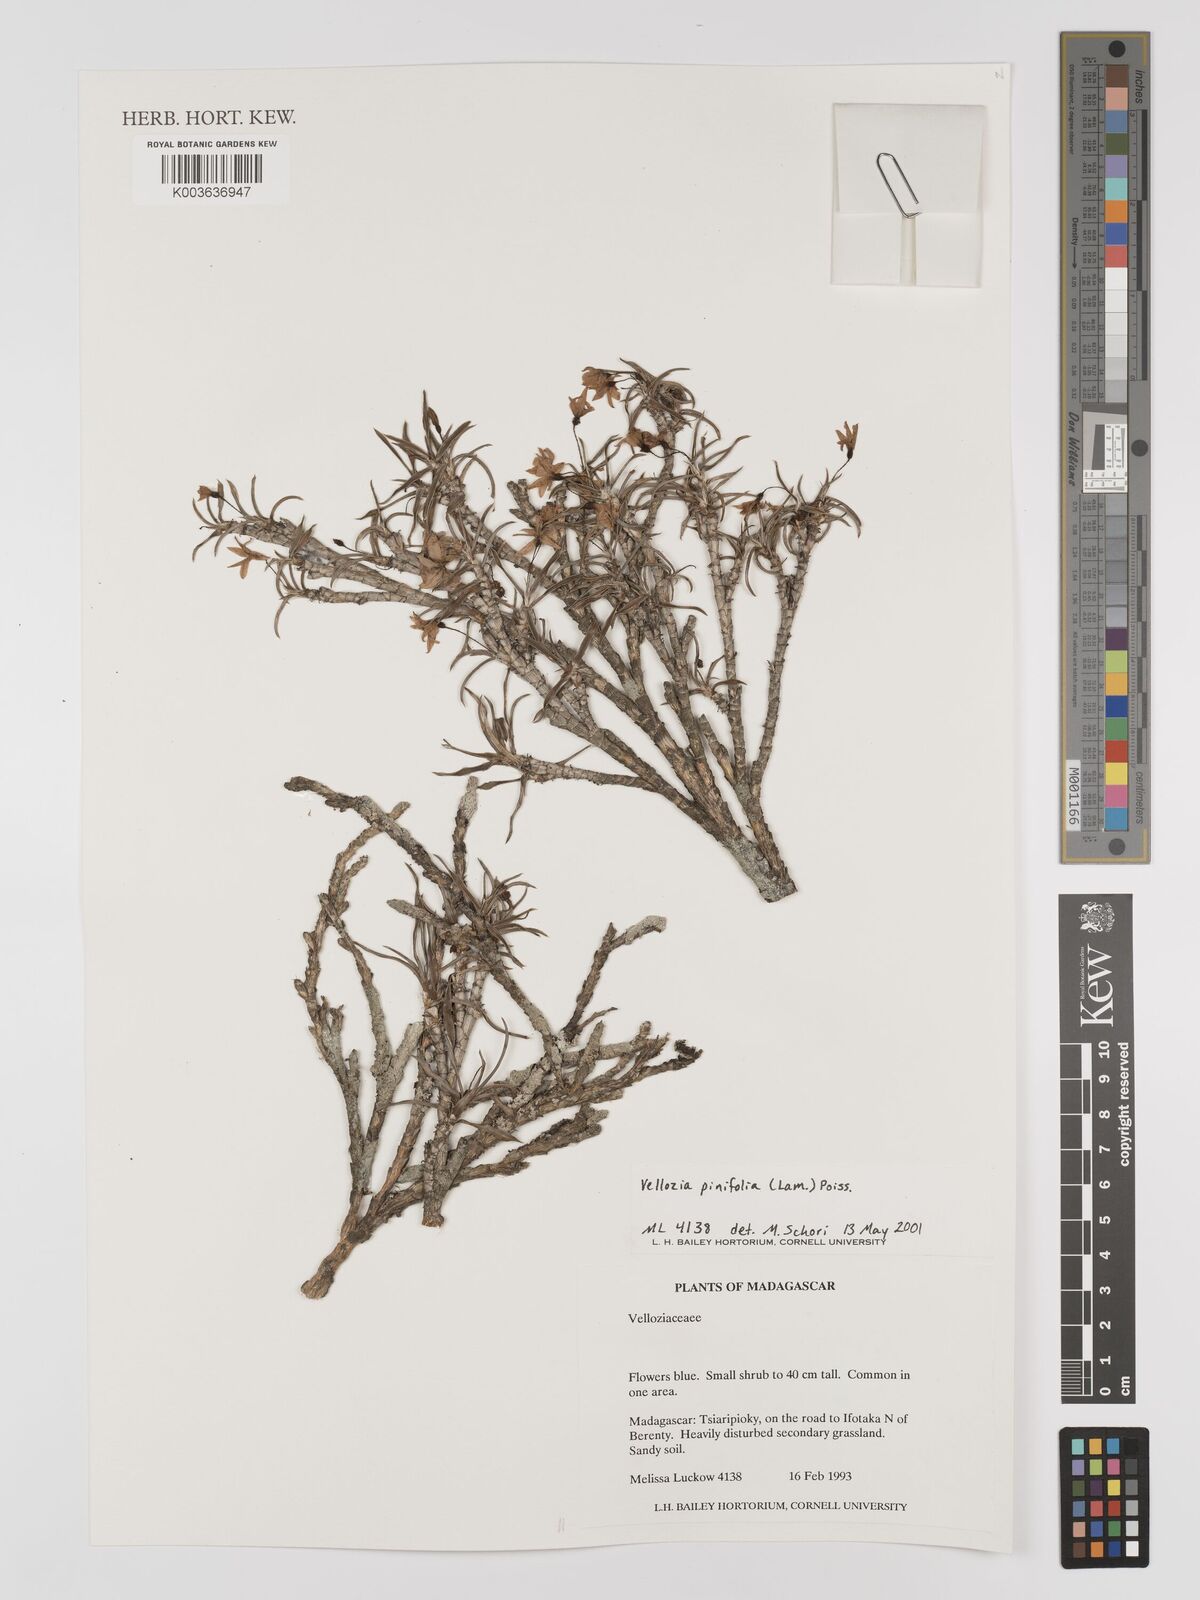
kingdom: Plantae
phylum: Tracheophyta
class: Liliopsida
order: Pandanales
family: Velloziaceae
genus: Xerophyta
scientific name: Xerophyta pinifolia
